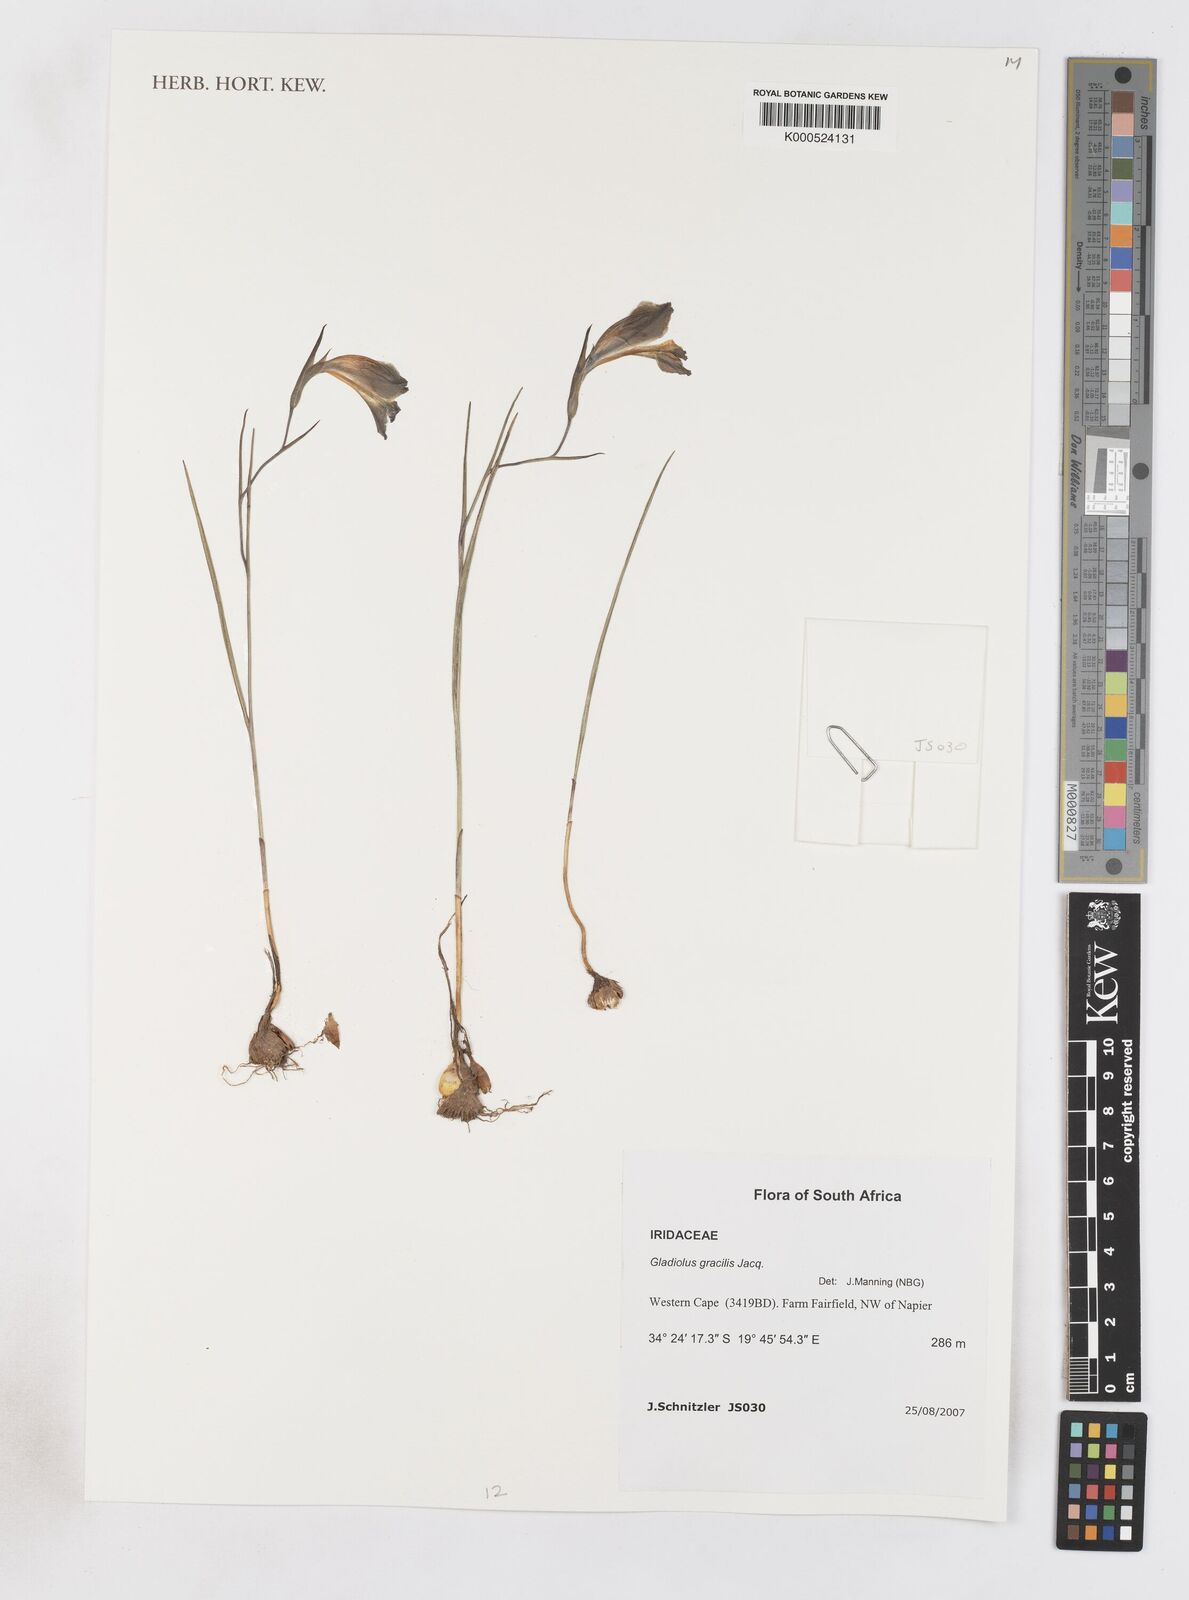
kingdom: Plantae
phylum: Tracheophyta
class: Liliopsida
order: Asparagales
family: Iridaceae
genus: Gladiolus
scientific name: Gladiolus gracilis
